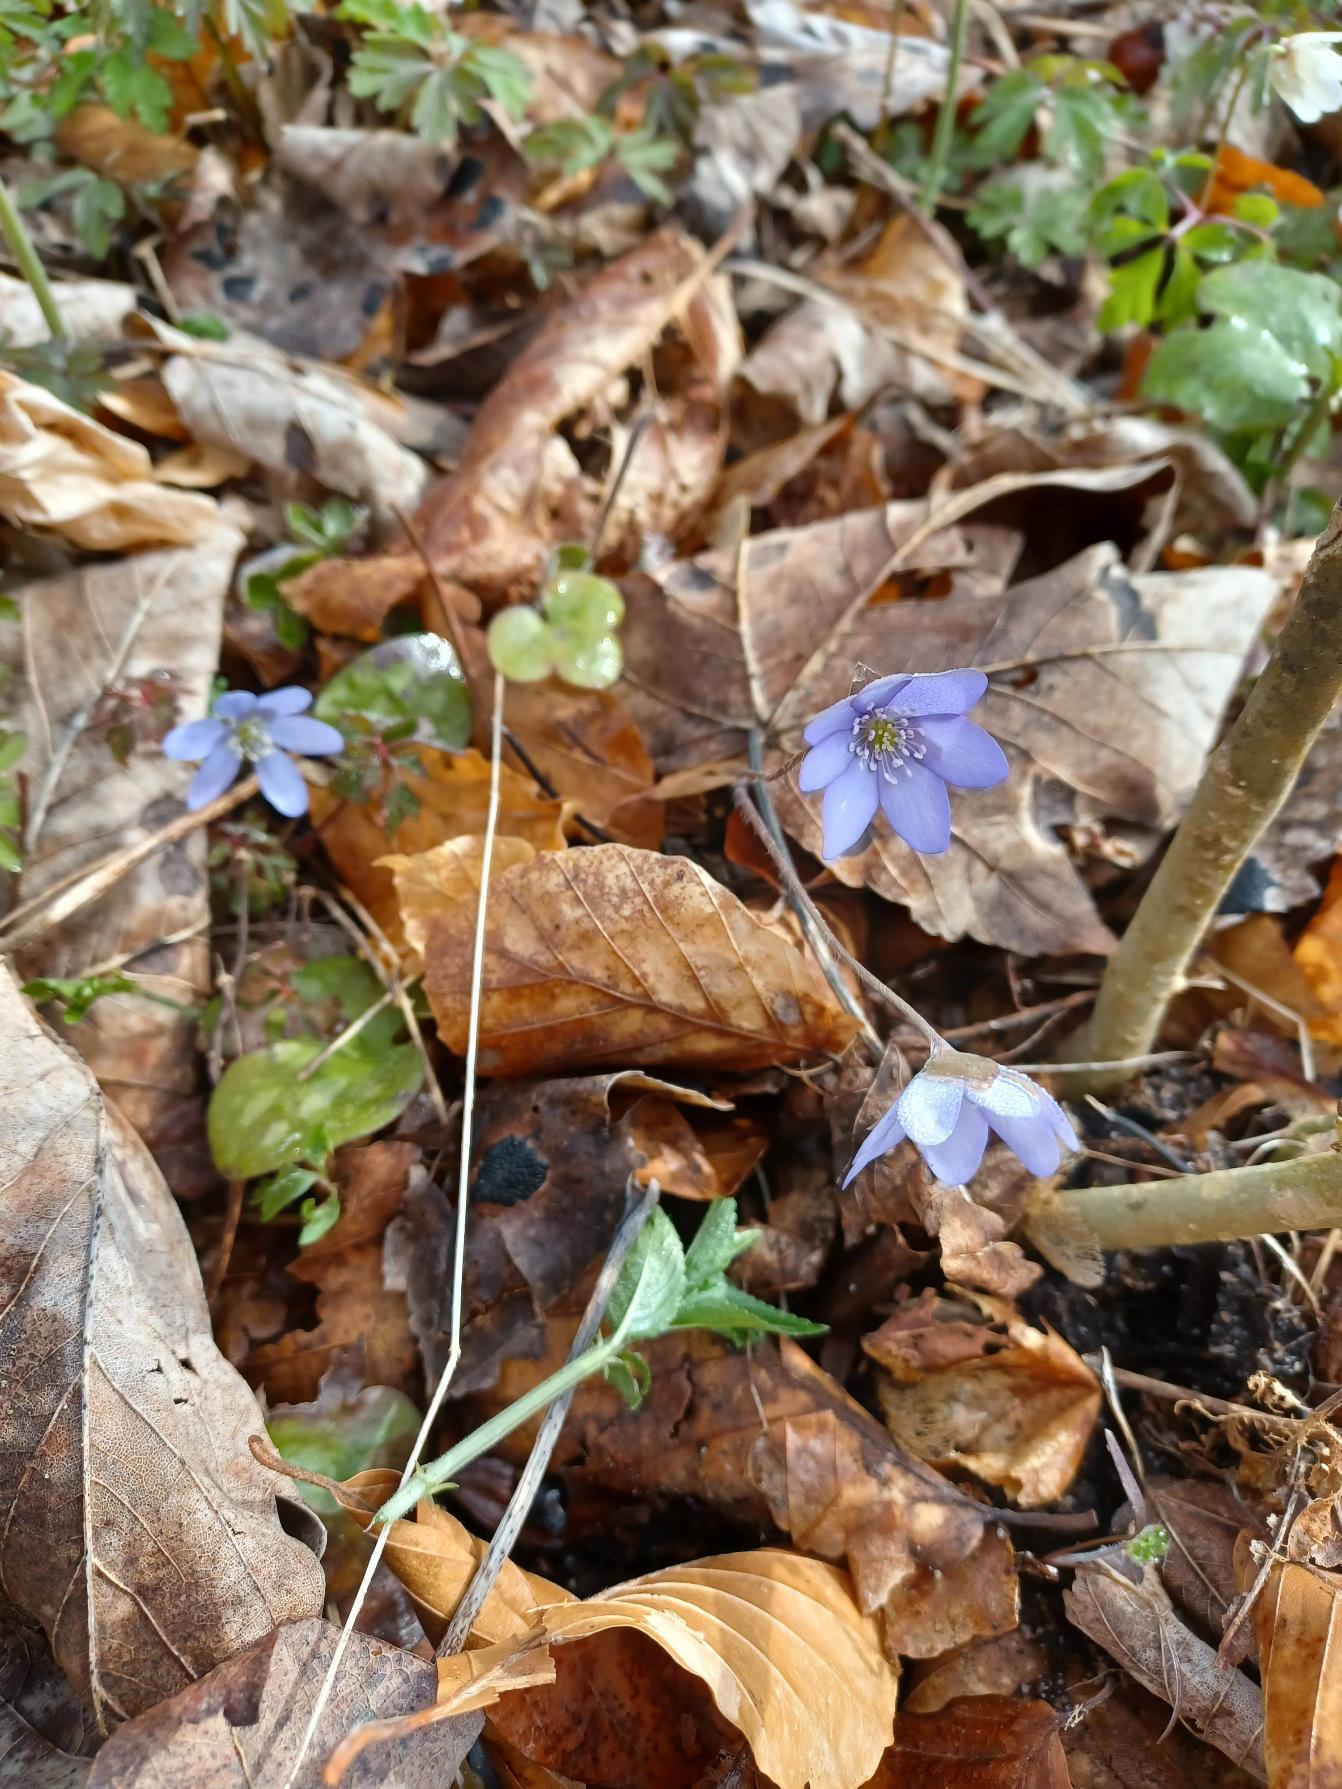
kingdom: Plantae
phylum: Tracheophyta
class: Magnoliopsida
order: Ranunculales
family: Ranunculaceae
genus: Hepatica
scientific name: Hepatica nobilis
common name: Blå anemone
